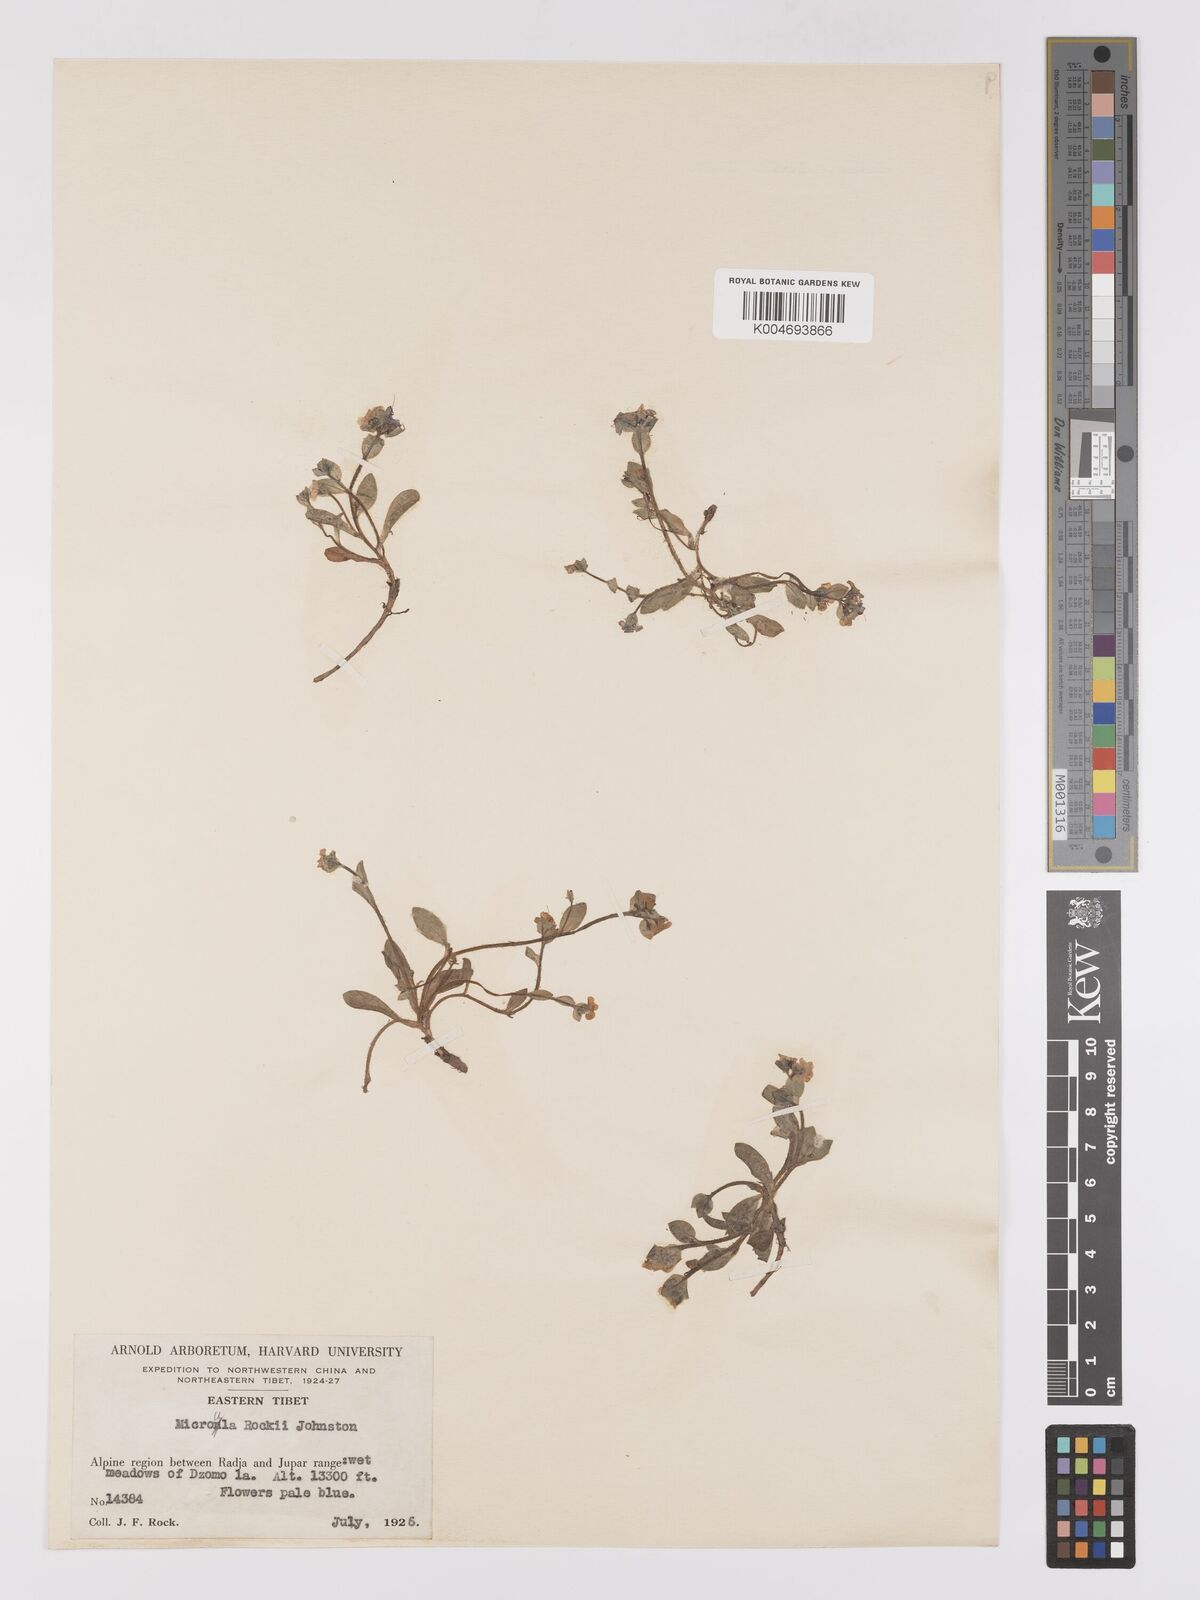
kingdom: Plantae
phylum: Tracheophyta
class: Magnoliopsida
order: Boraginales
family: Boraginaceae
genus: Microula
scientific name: Microula rockii
